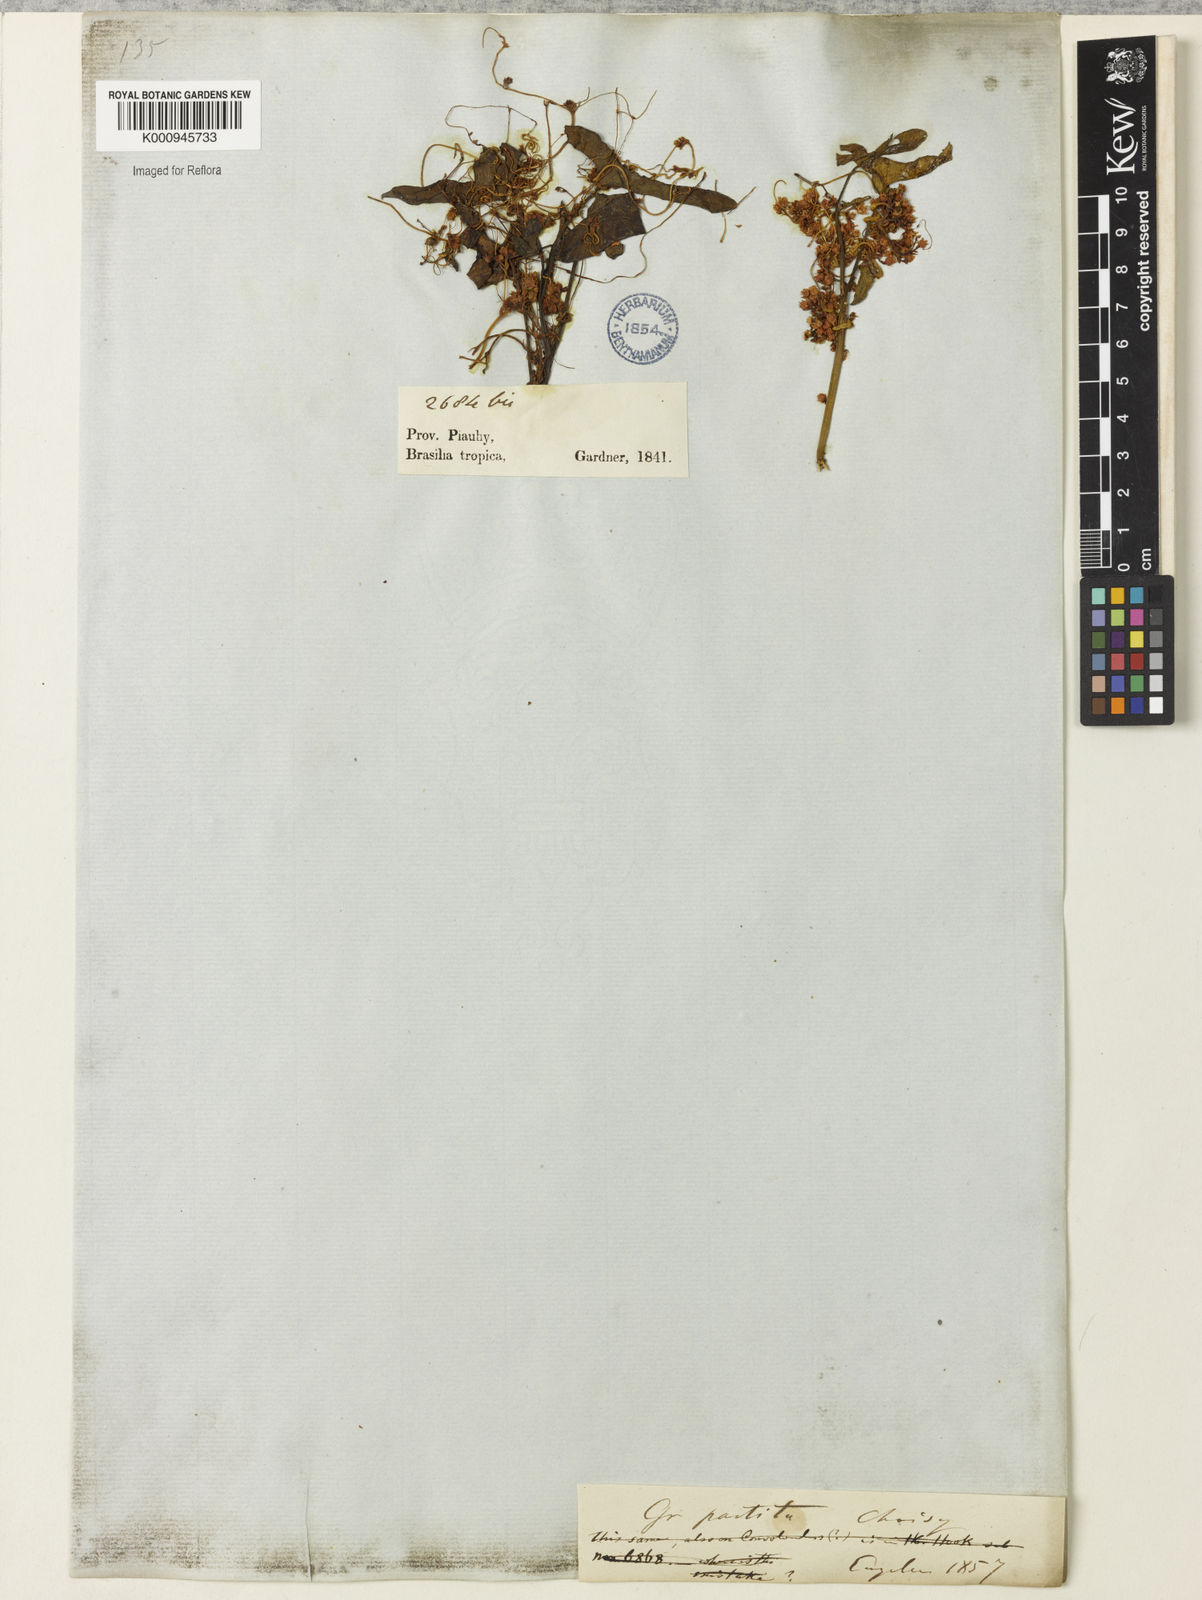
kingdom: Plantae
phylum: Tracheophyta
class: Magnoliopsida
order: Solanales
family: Convolvulaceae
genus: Cuscuta
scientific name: Cuscuta partita
